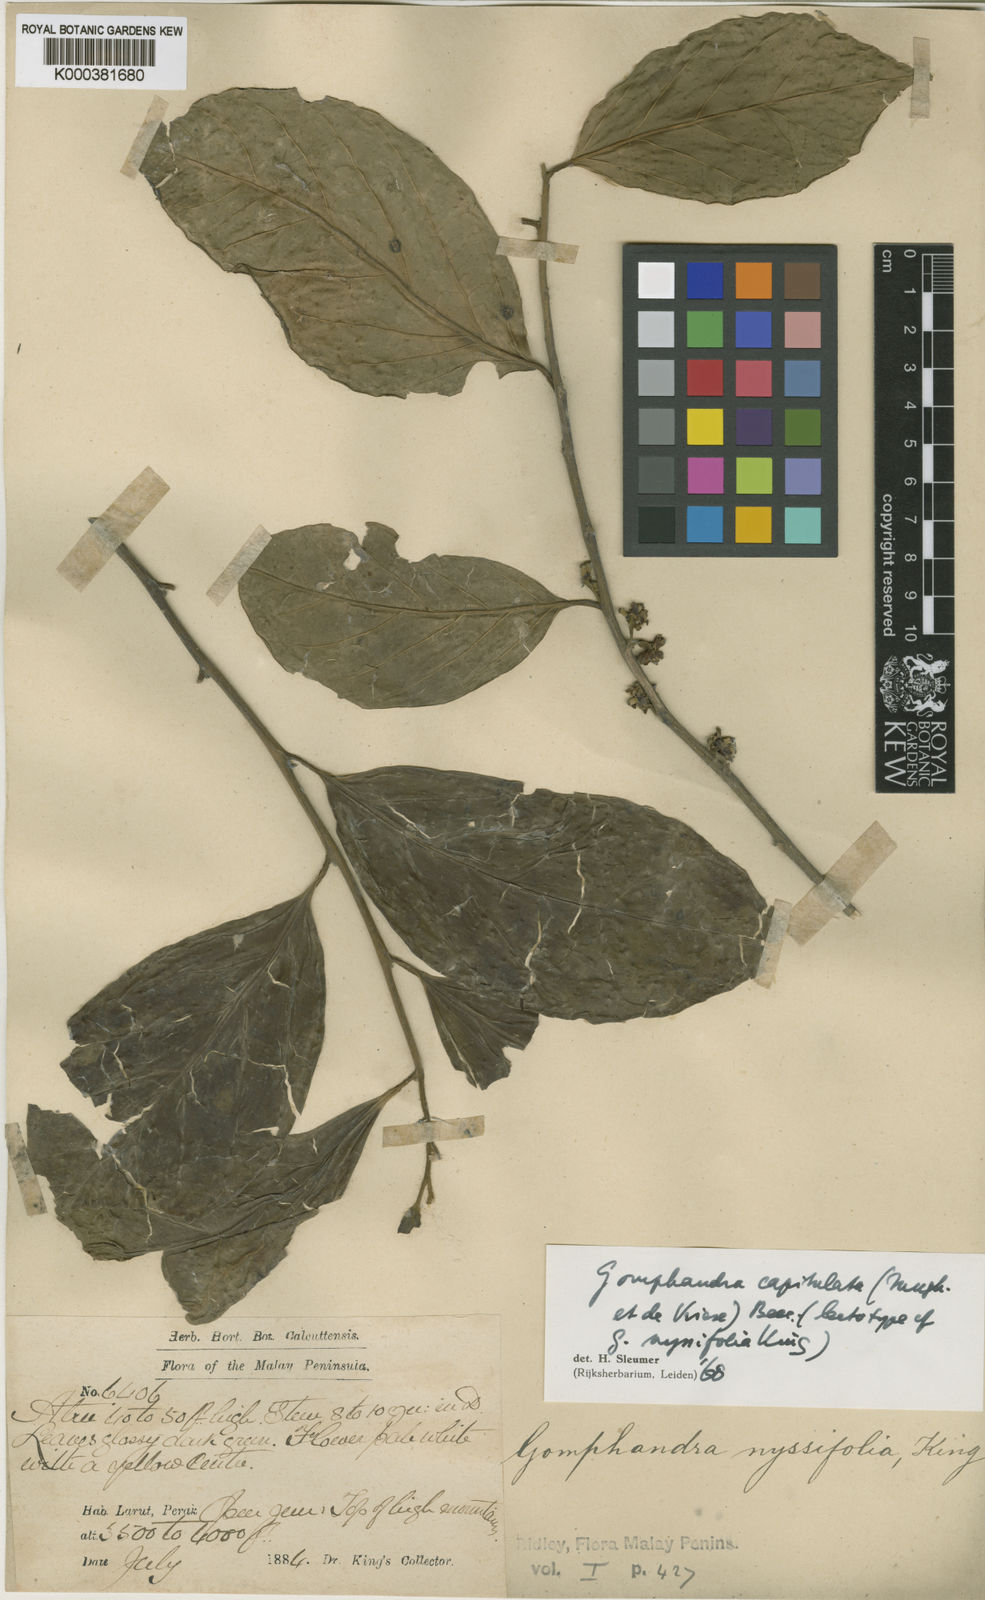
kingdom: Plantae
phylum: Tracheophyta
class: Magnoliopsida
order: Cardiopteridales
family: Stemonuraceae
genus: Gomphandra
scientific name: Gomphandra capitulata
